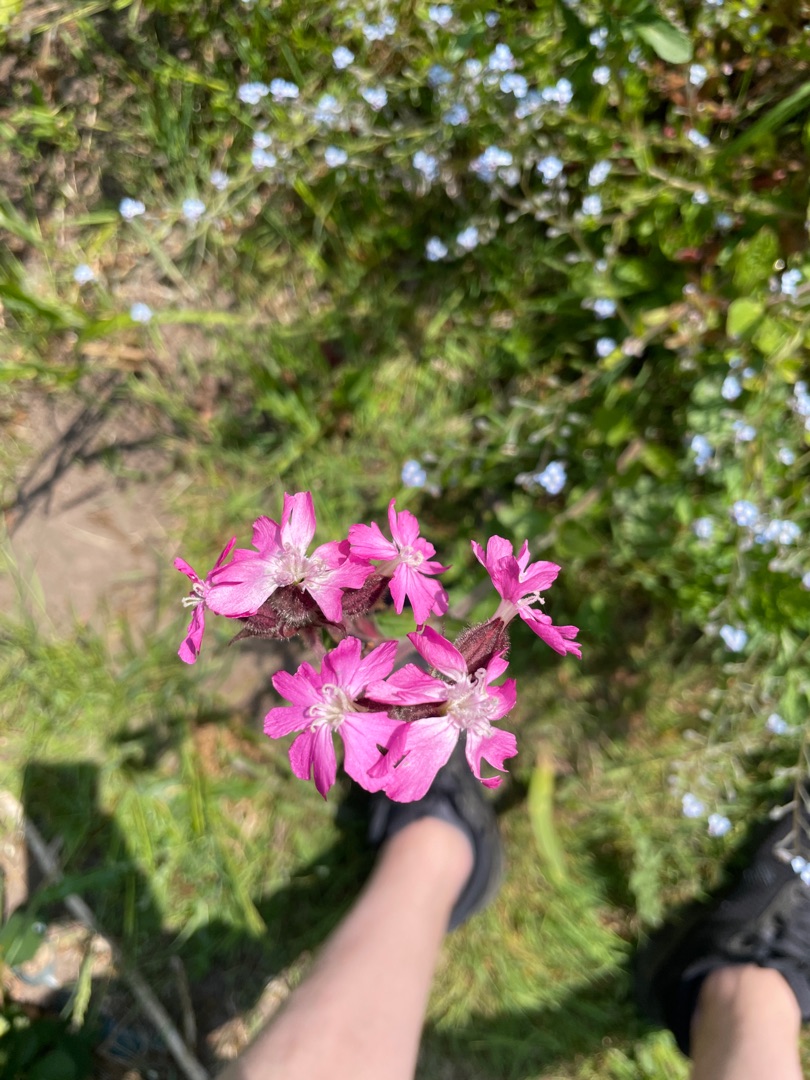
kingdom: Plantae
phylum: Tracheophyta
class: Magnoliopsida
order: Caryophyllales
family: Caryophyllaceae
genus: Silene
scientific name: Silene dioica
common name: Dagpragtstjerne
